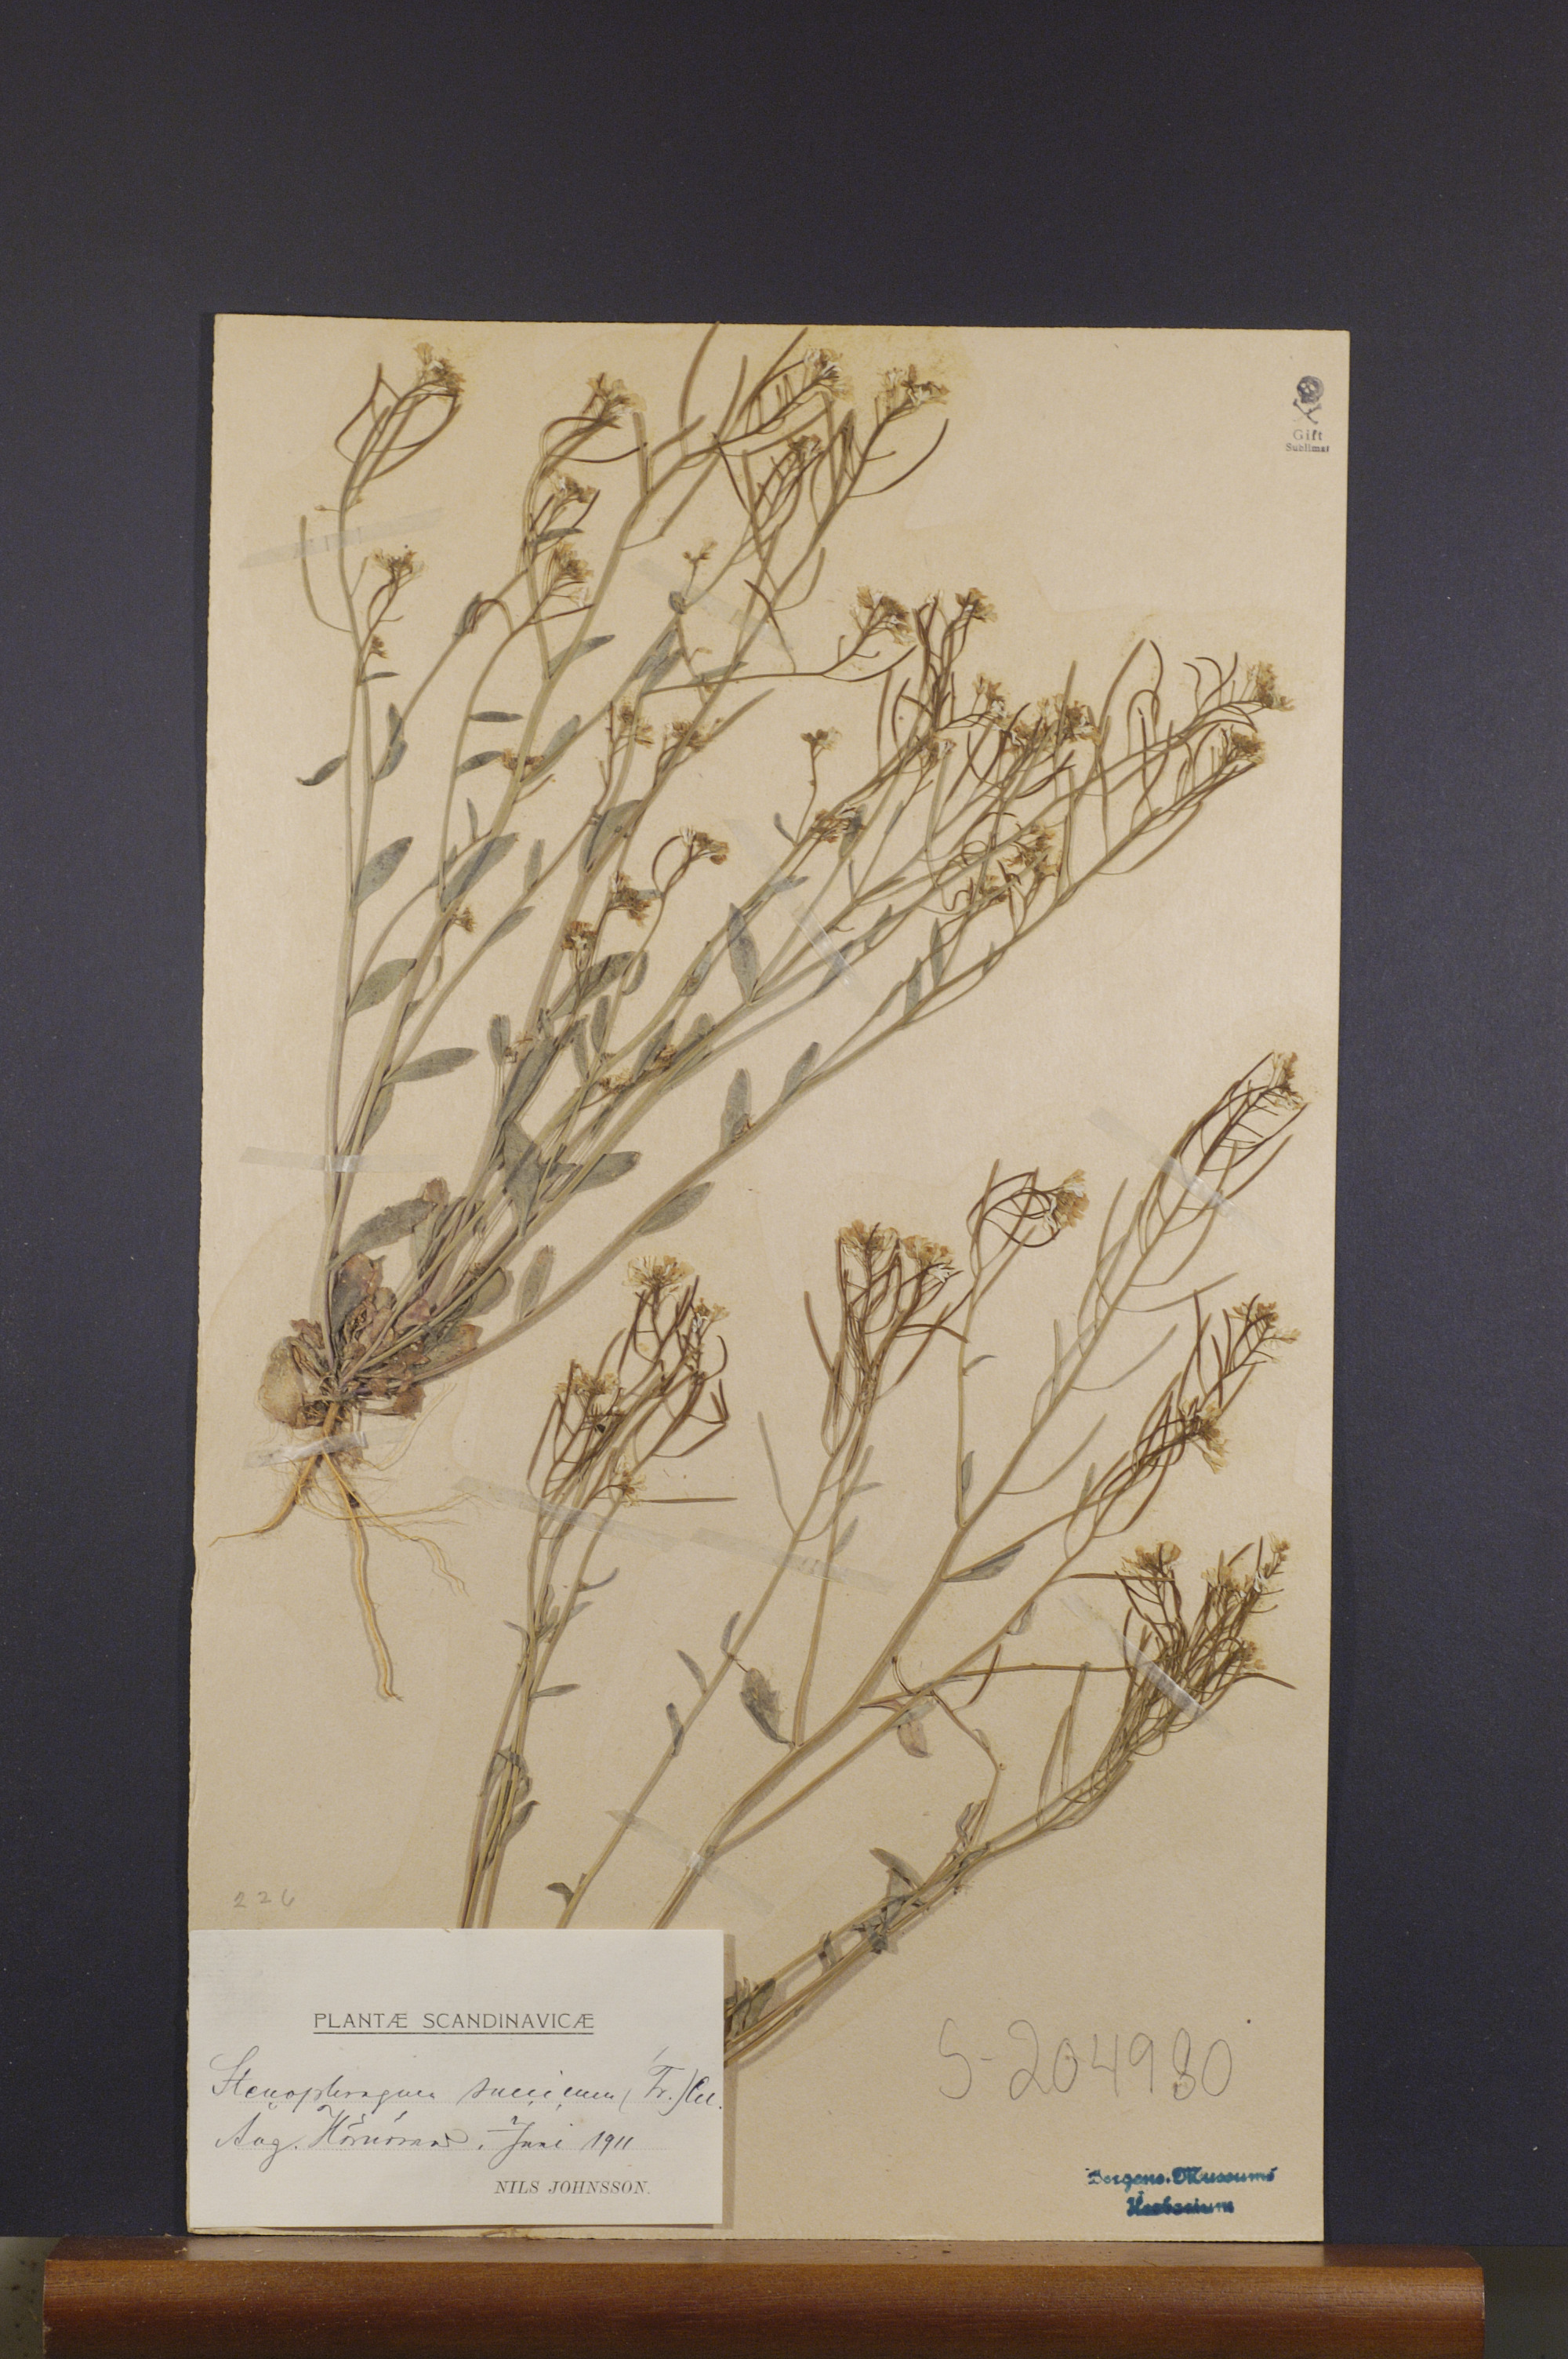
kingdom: Plantae
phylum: Tracheophyta
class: Magnoliopsida
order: Brassicales
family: Brassicaceae
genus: Arabidopsis
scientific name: Arabidopsis suecica
